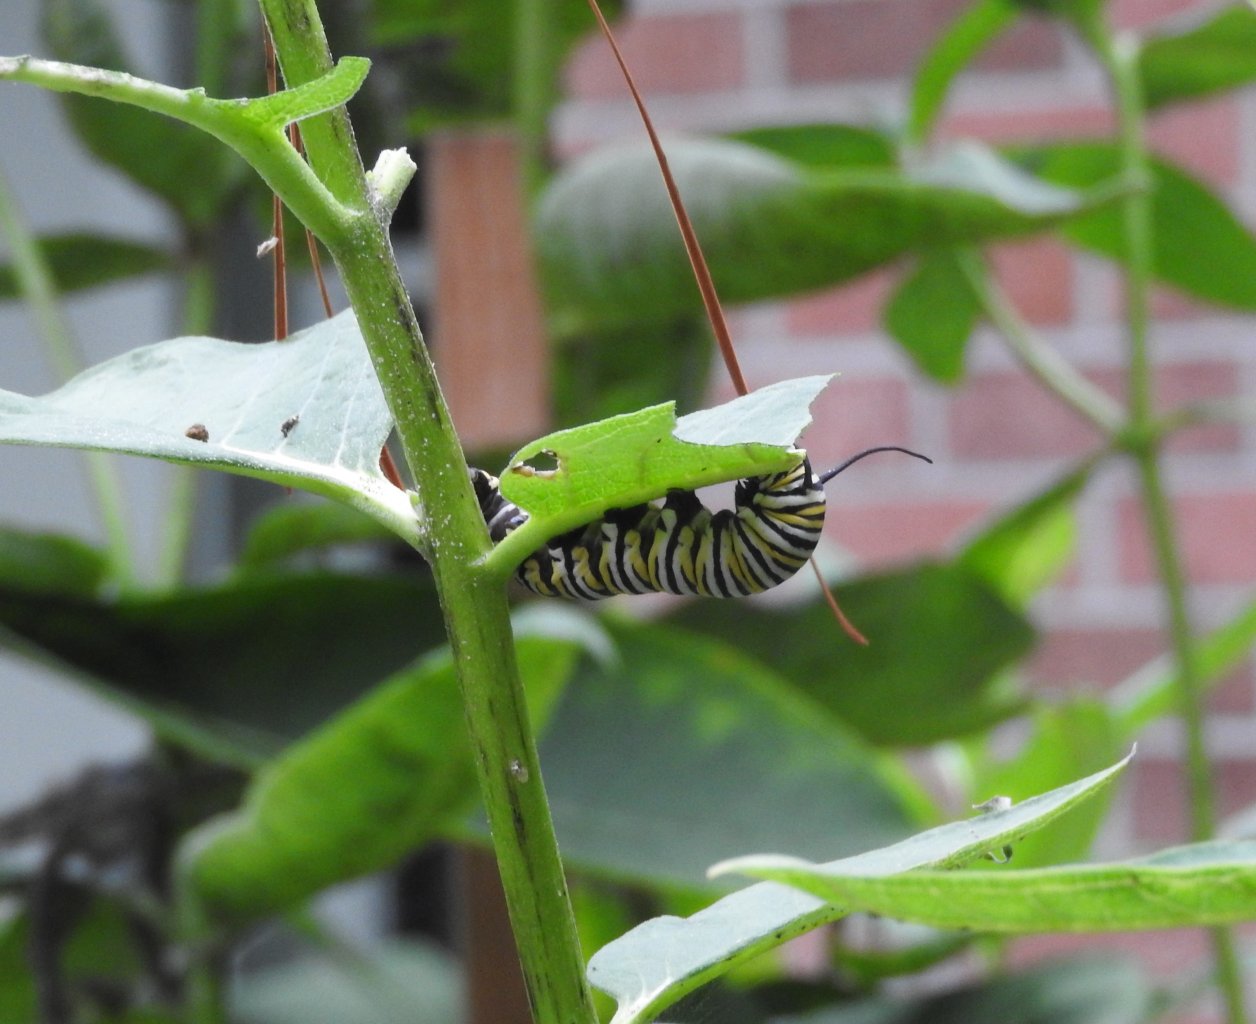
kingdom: Animalia
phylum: Arthropoda
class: Insecta
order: Lepidoptera
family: Nymphalidae
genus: Danaus
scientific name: Danaus plexippus
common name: Monarch
